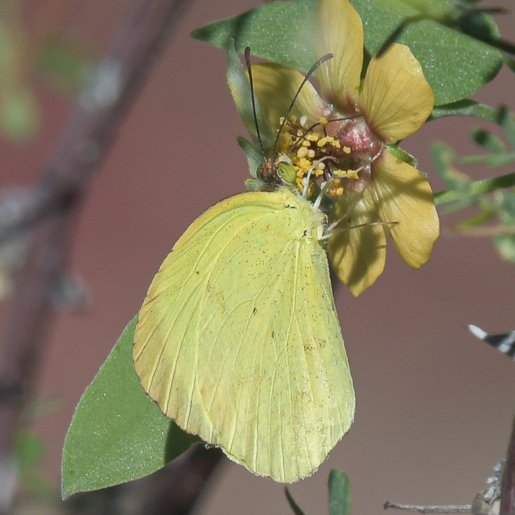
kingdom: Animalia
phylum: Arthropoda
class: Insecta
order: Lepidoptera
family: Pieridae
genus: Pyrisitia
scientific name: Pyrisitia nise
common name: Mimosa Yellow
